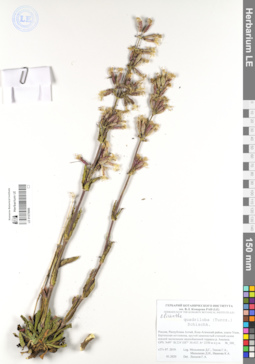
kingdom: Plantae
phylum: Tracheophyta
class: Magnoliopsida
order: Caryophyllales
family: Caryophyllaceae
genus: Silene
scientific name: Silene quadriloba
